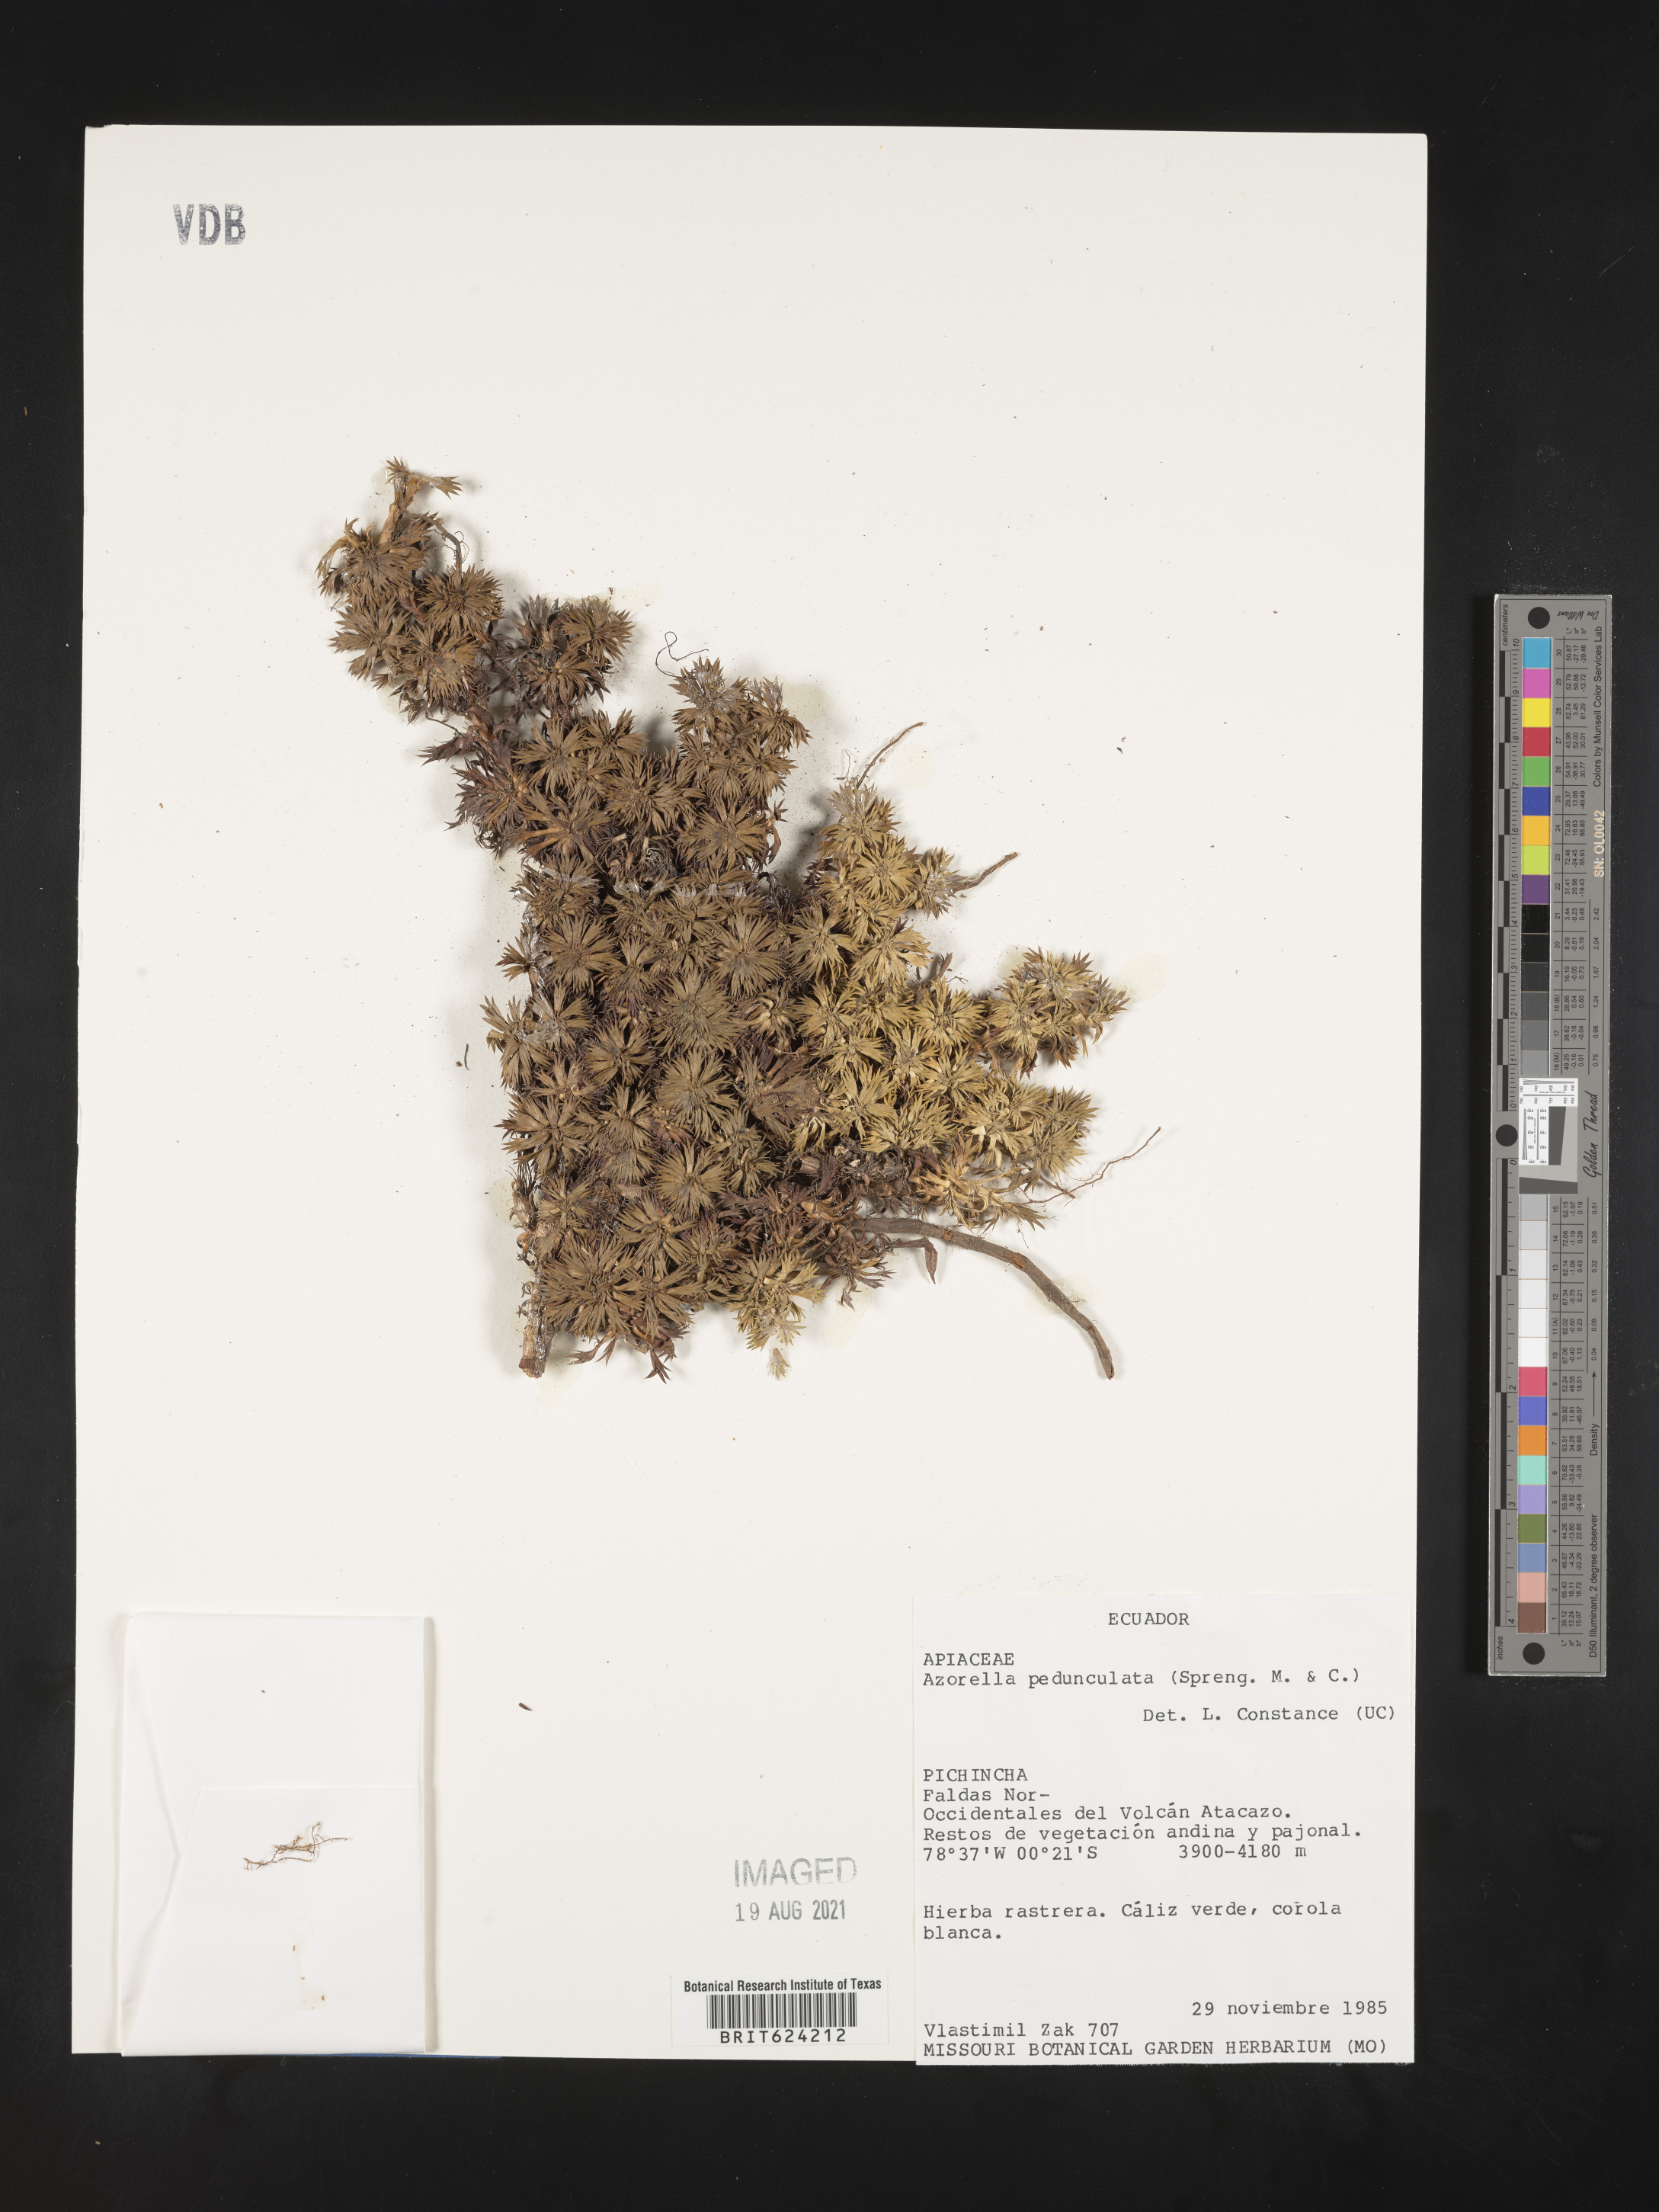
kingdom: Plantae
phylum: Tracheophyta
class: Magnoliopsida
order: Apiales
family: Apiaceae
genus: Azorella
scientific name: Azorella pedunculata
